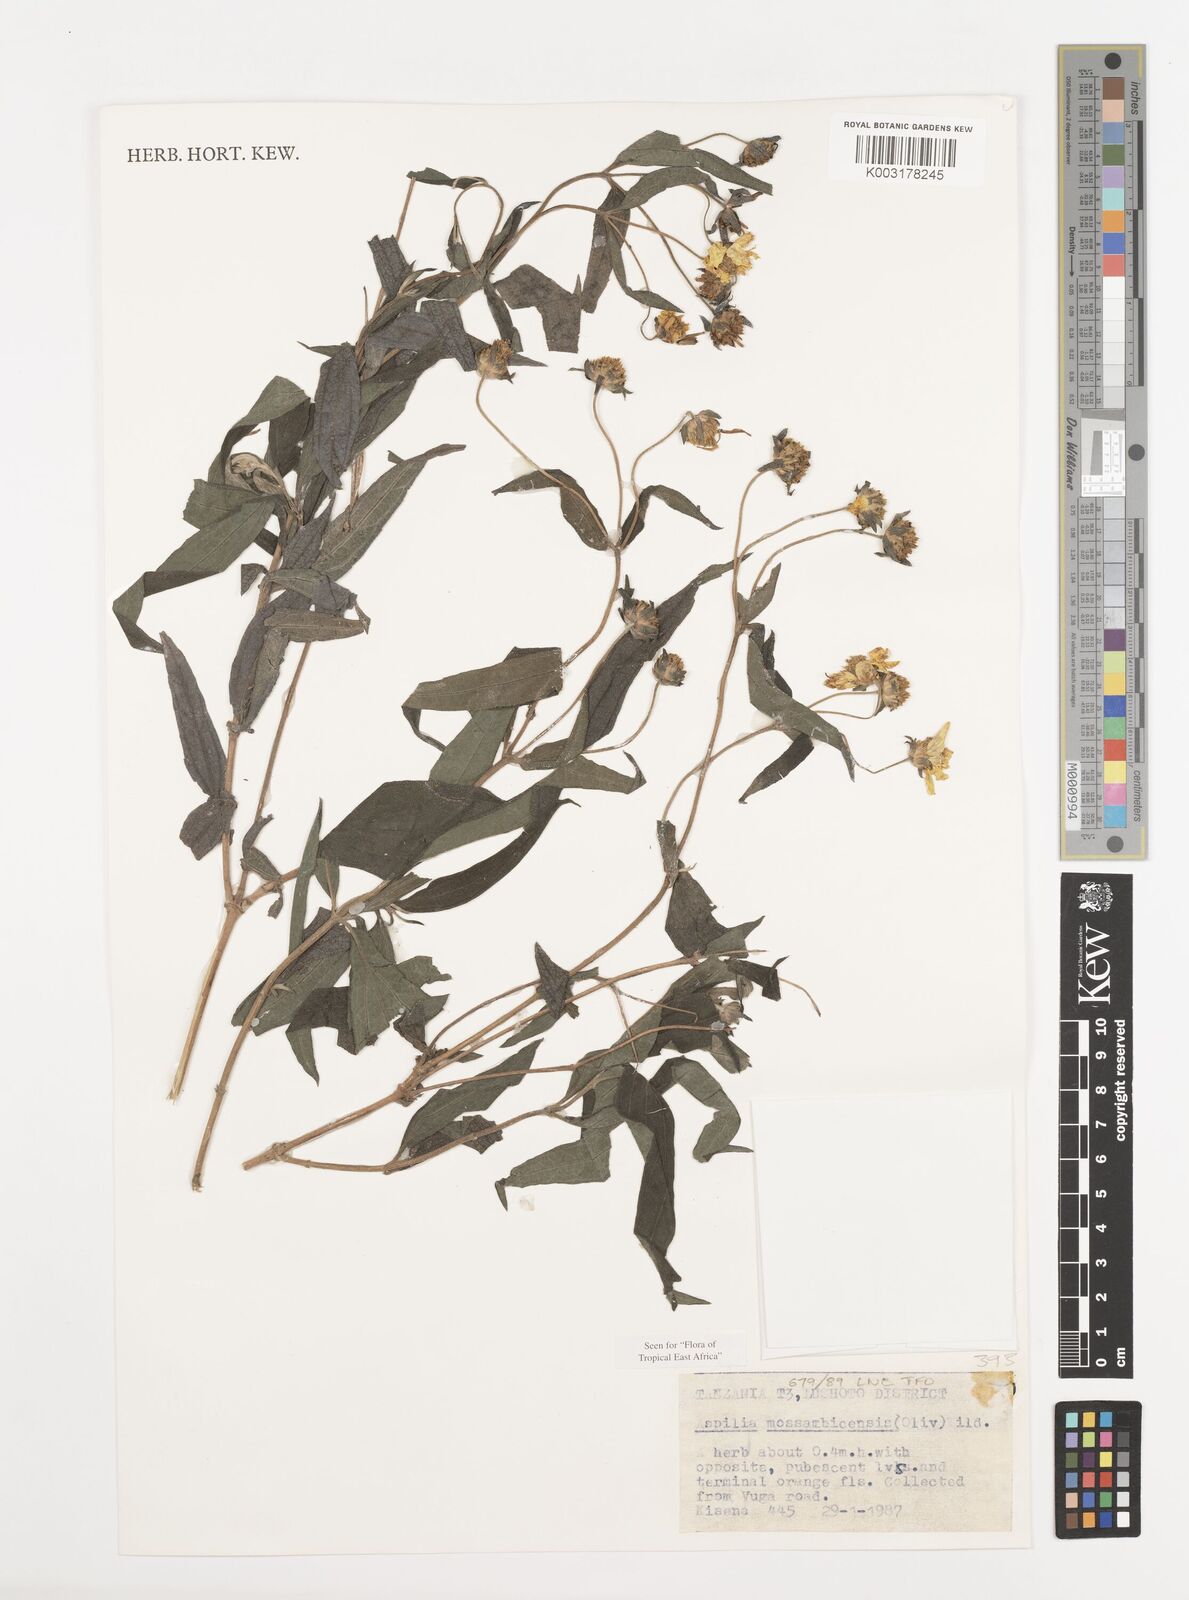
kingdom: Plantae
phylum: Tracheophyta
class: Magnoliopsida
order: Asterales
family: Asteraceae
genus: Aspilia
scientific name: Aspilia mossambicensis
